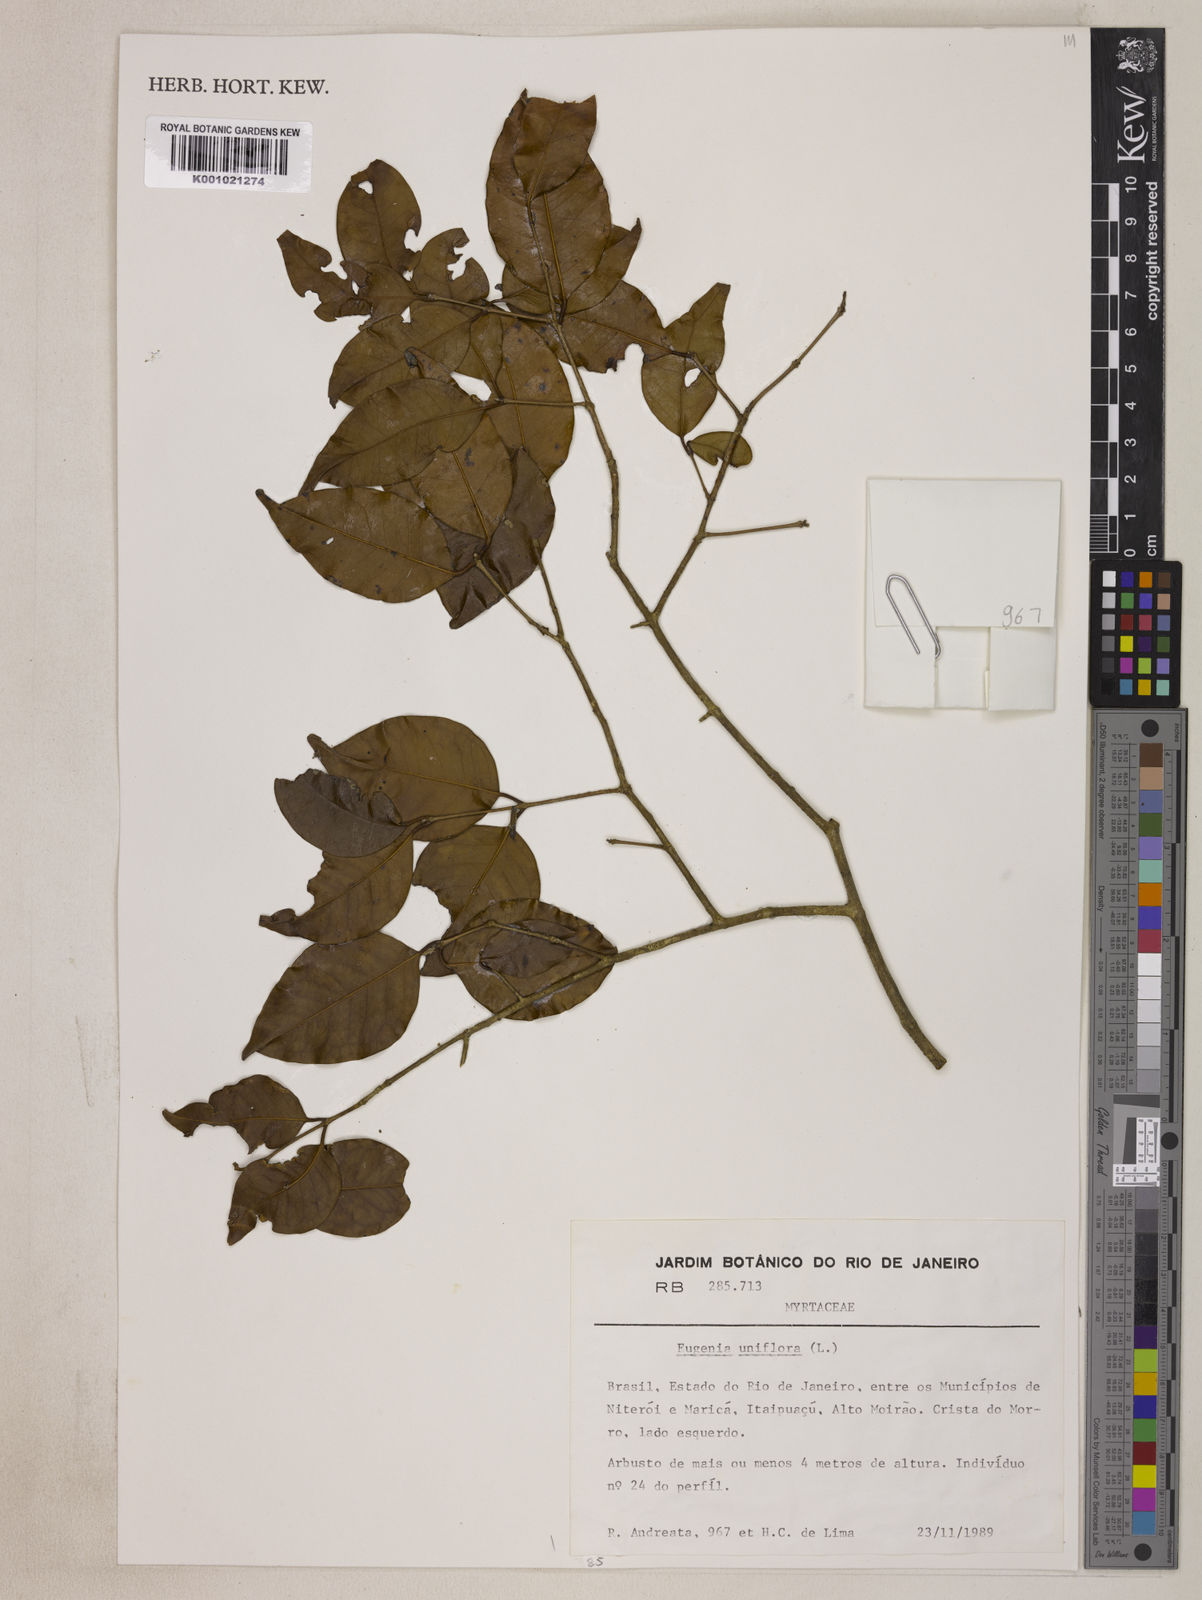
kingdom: Plantae
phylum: Tracheophyta
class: Magnoliopsida
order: Myrtales
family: Myrtaceae
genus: Eugenia
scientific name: Eugenia uniflora
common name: Surinam cherry
